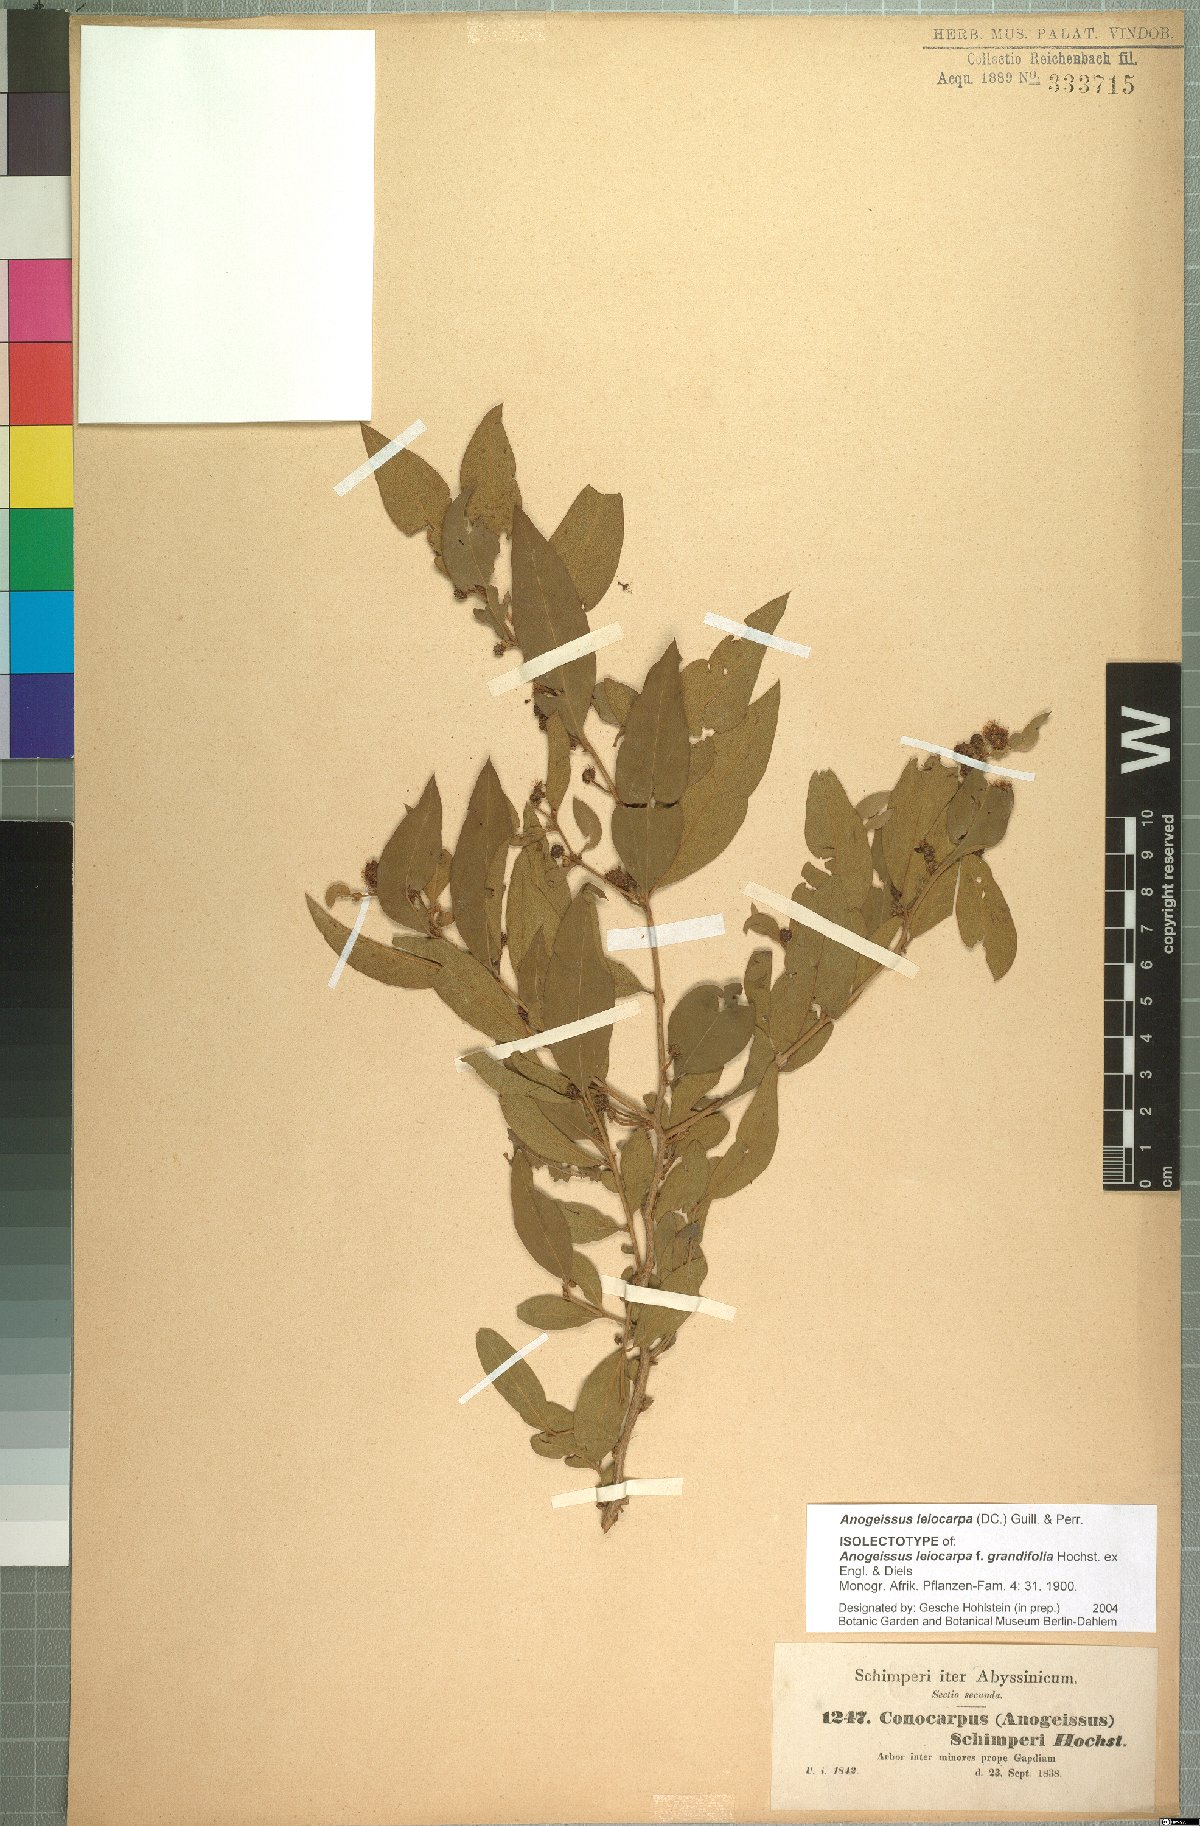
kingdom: Plantae
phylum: Tracheophyta
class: Magnoliopsida
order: Myrtales
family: Combretaceae
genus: Terminalia
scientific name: Terminalia leiocarpa
